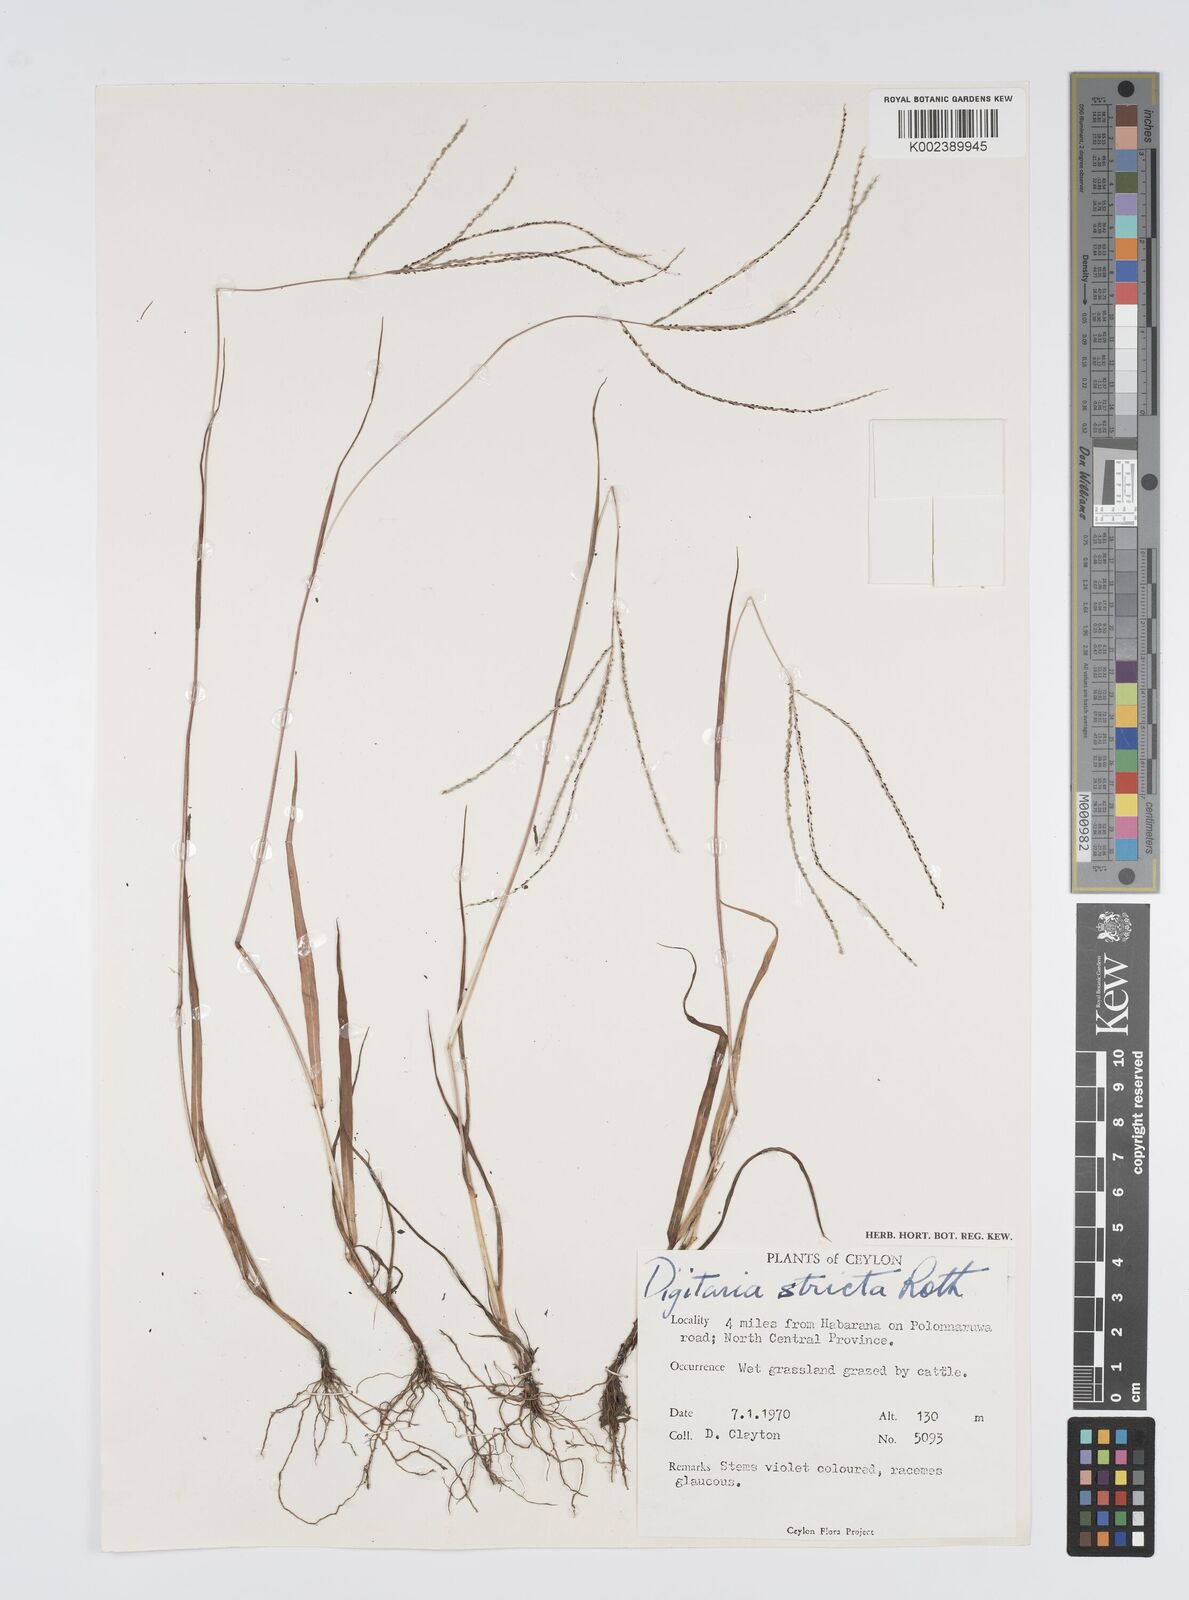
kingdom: Plantae
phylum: Tracheophyta
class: Liliopsida
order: Poales
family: Poaceae
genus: Digitaria
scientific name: Digitaria stricta
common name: Crabgrass
